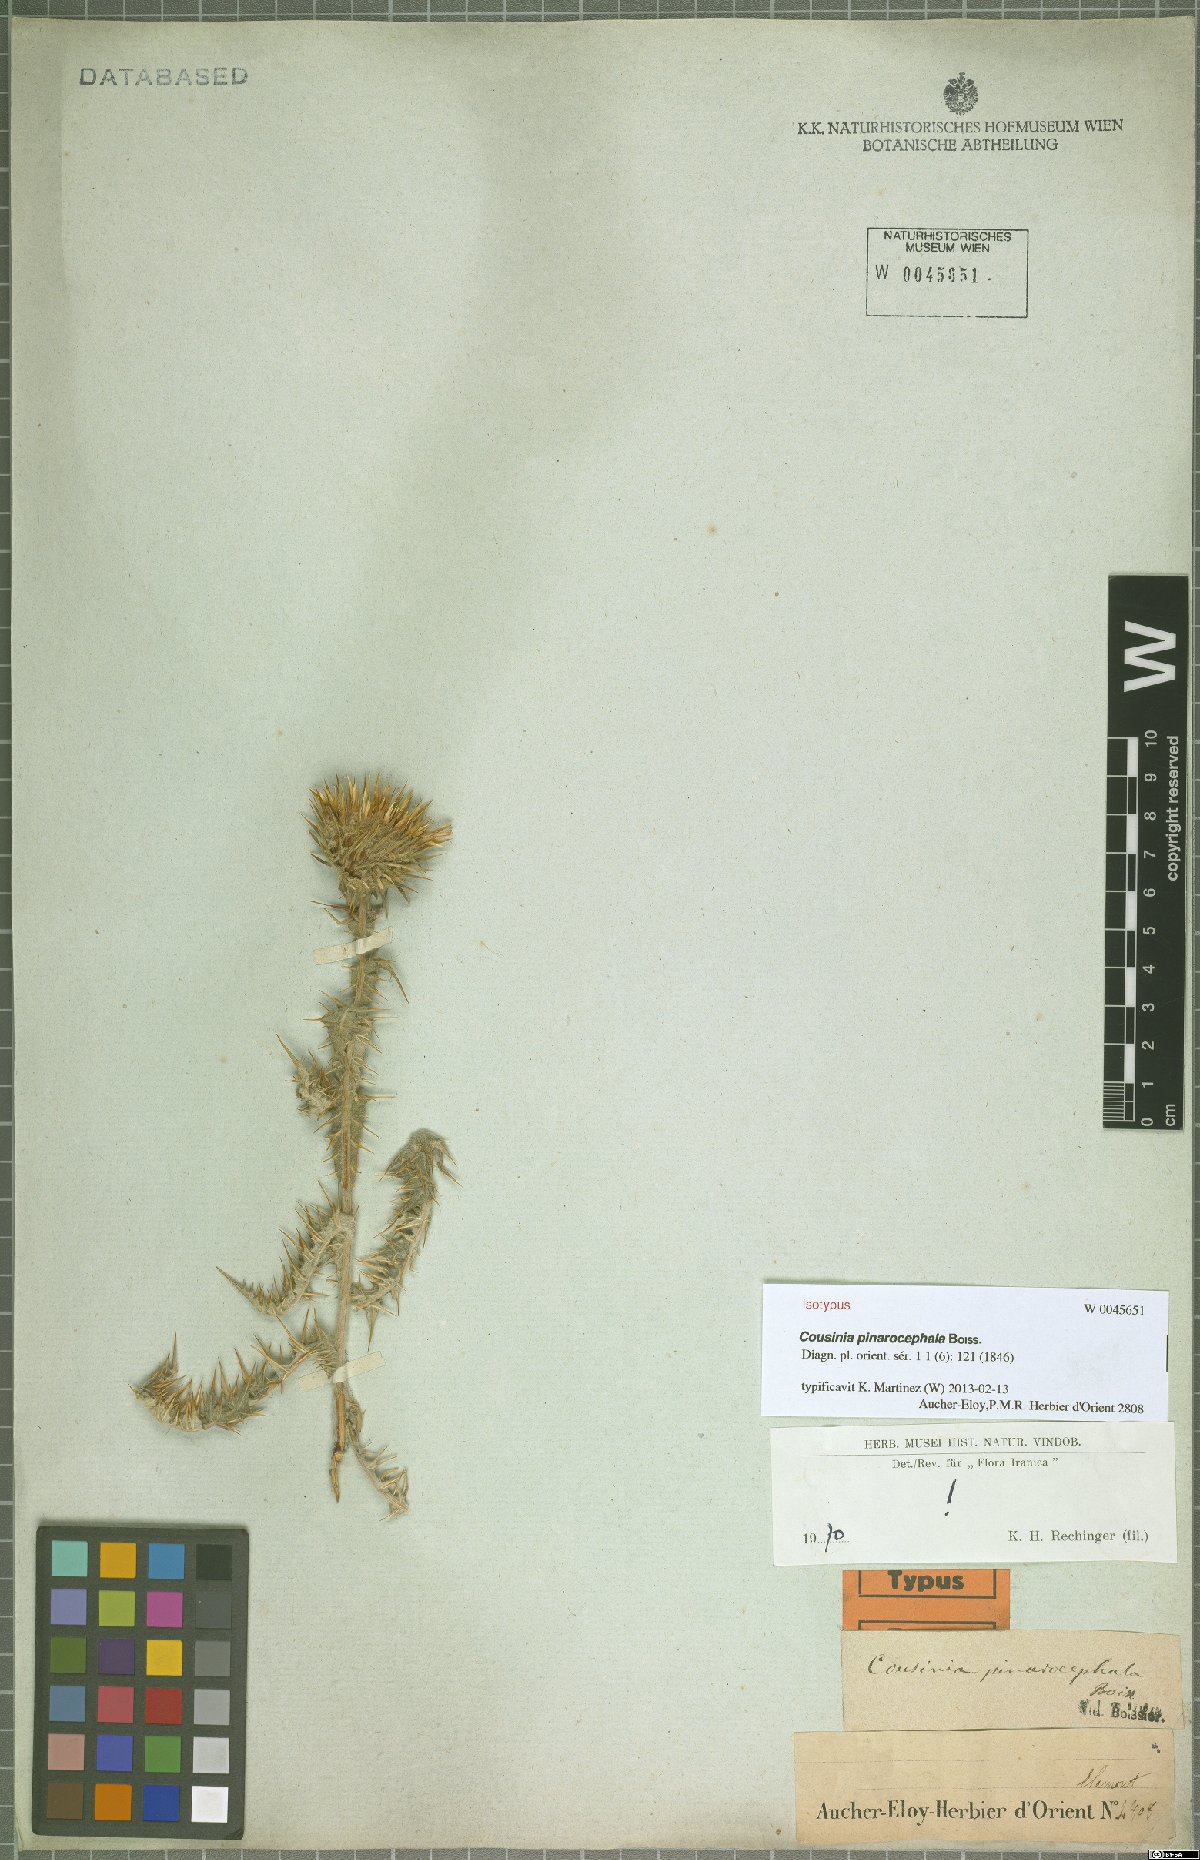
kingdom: Plantae
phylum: Tracheophyta
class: Magnoliopsida
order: Asterales
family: Asteraceae
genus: Cousinia
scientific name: Cousinia pinarocephala
